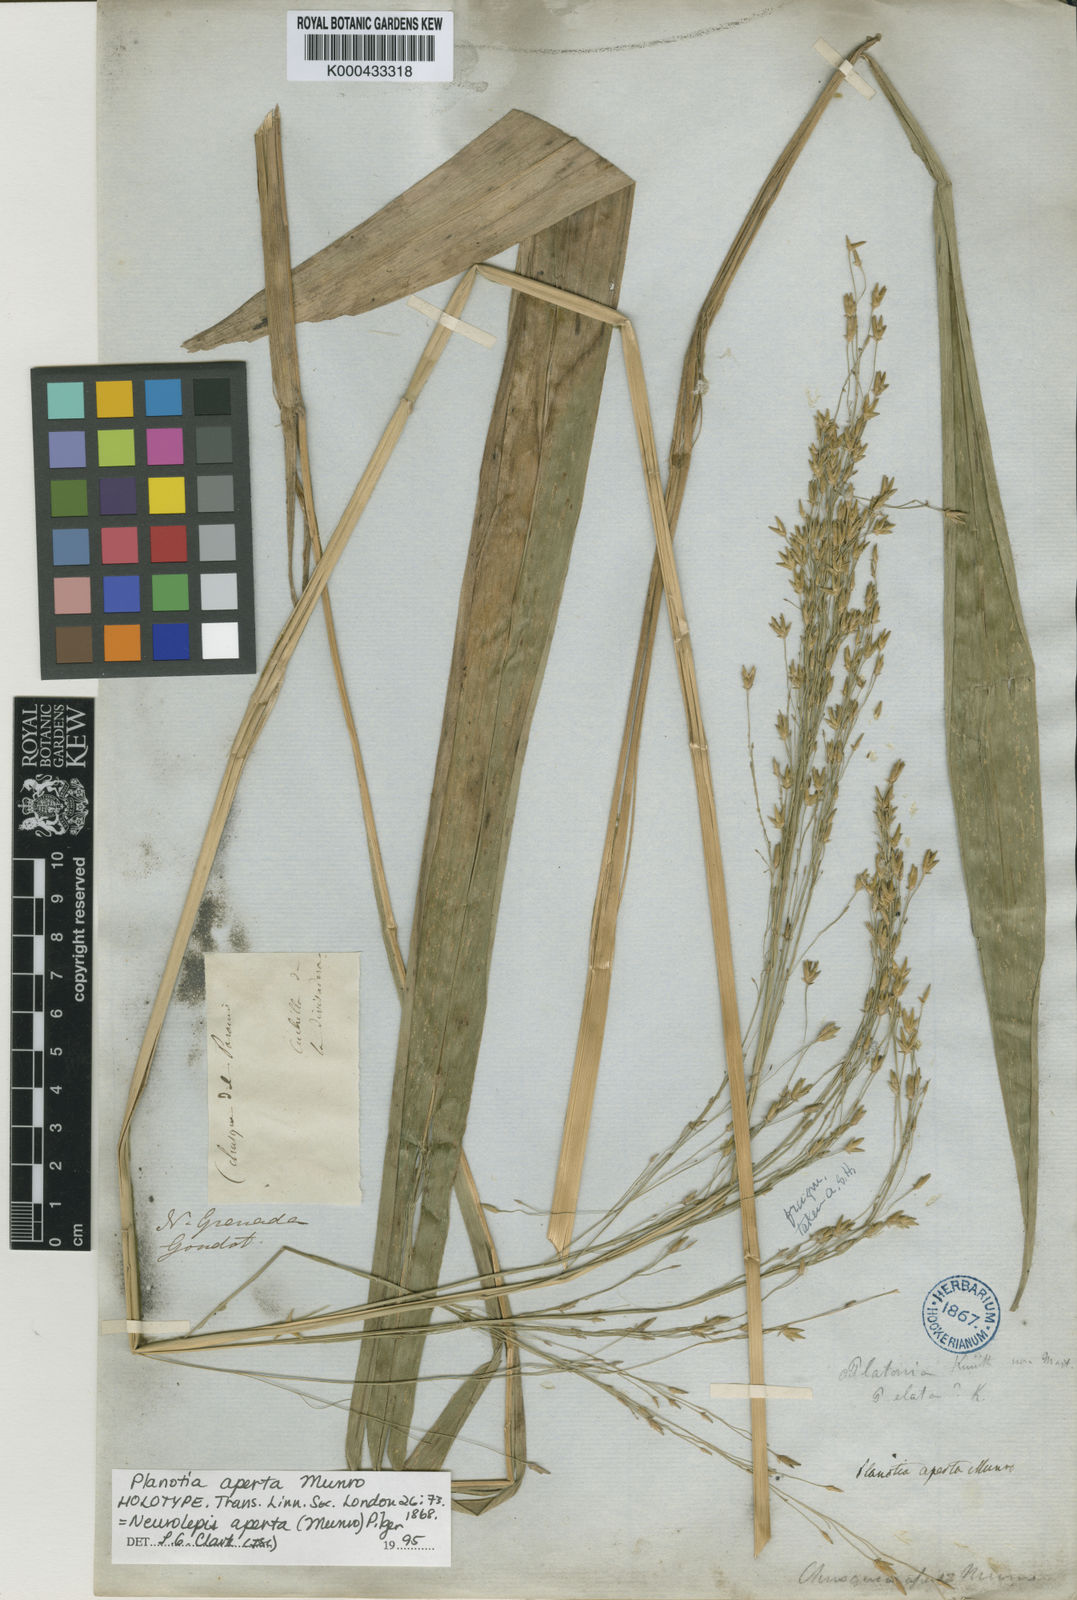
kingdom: Plantae
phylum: Tracheophyta
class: Liliopsida
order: Poales
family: Poaceae
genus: Chusquea
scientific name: Chusquea spectabilis
